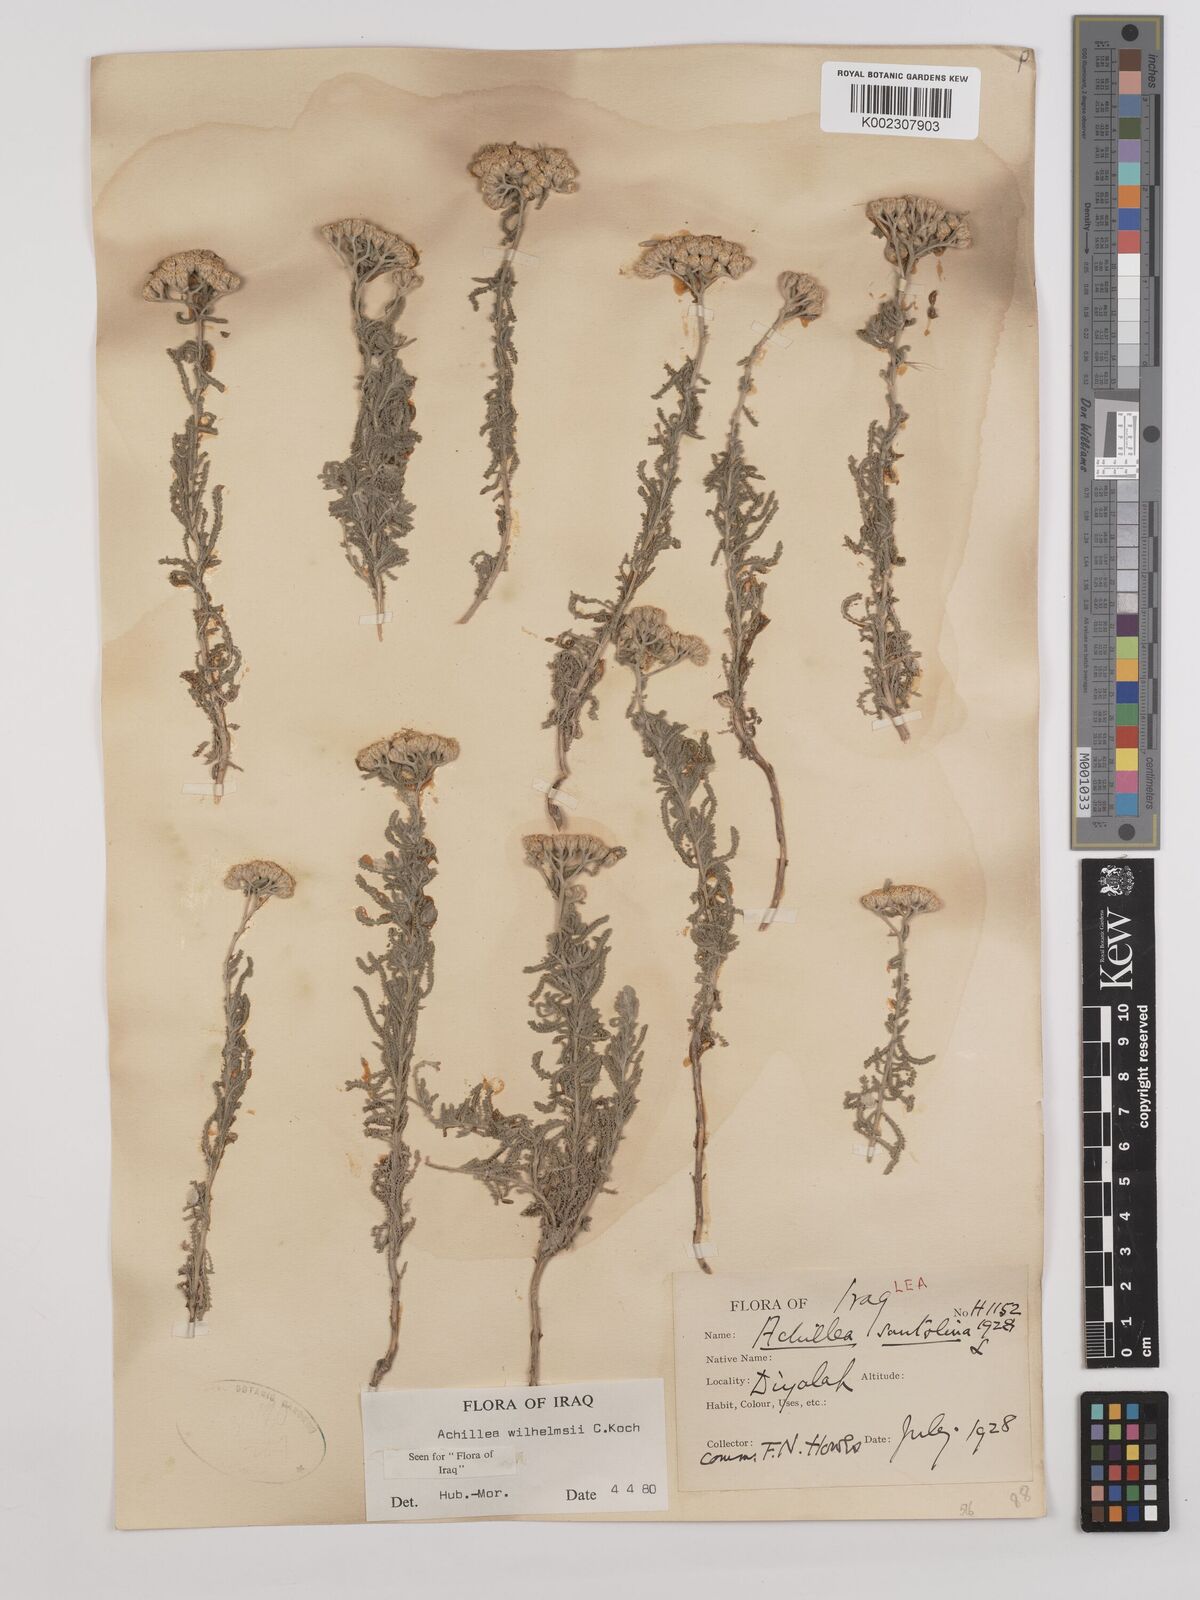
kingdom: Plantae
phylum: Tracheophyta
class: Magnoliopsida
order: Asterales
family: Asteraceae
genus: Achillea
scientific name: Achillea wilhelmsii
